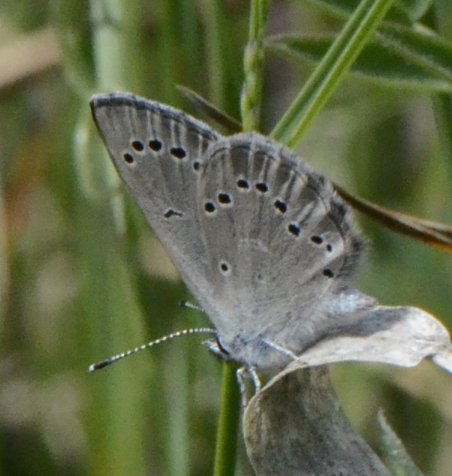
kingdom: Animalia
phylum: Arthropoda
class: Insecta
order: Lepidoptera
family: Lycaenidae
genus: Glaucopsyche
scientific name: Glaucopsyche lygdamus
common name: Silvery Blue
